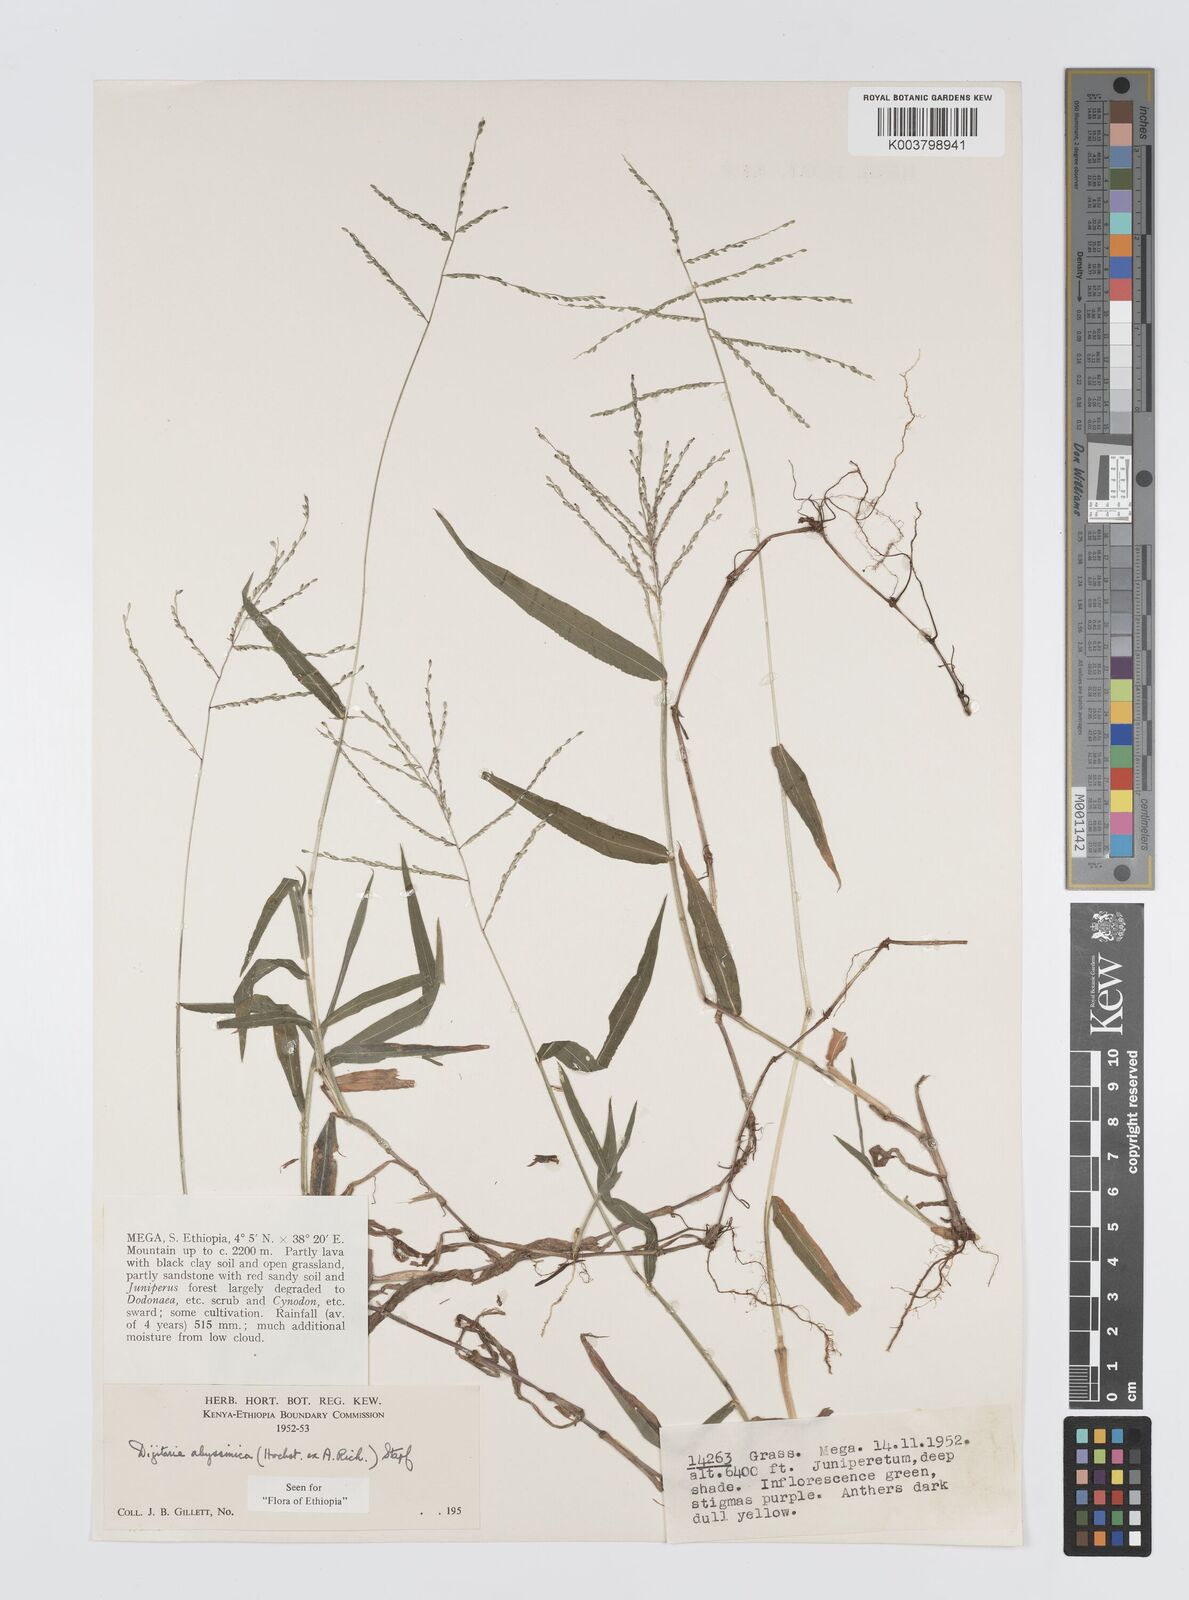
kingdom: Plantae
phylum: Tracheophyta
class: Liliopsida
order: Poales
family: Poaceae
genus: Digitaria
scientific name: Digitaria abyssinica
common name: African couchgrass
